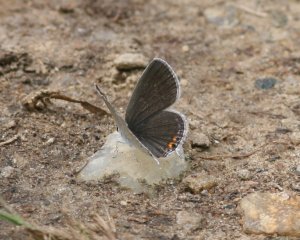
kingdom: Animalia
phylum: Arthropoda
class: Insecta
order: Lepidoptera
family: Lycaenidae
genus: Elkalyce
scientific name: Elkalyce comyntas
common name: Eastern Tailed-Blue
